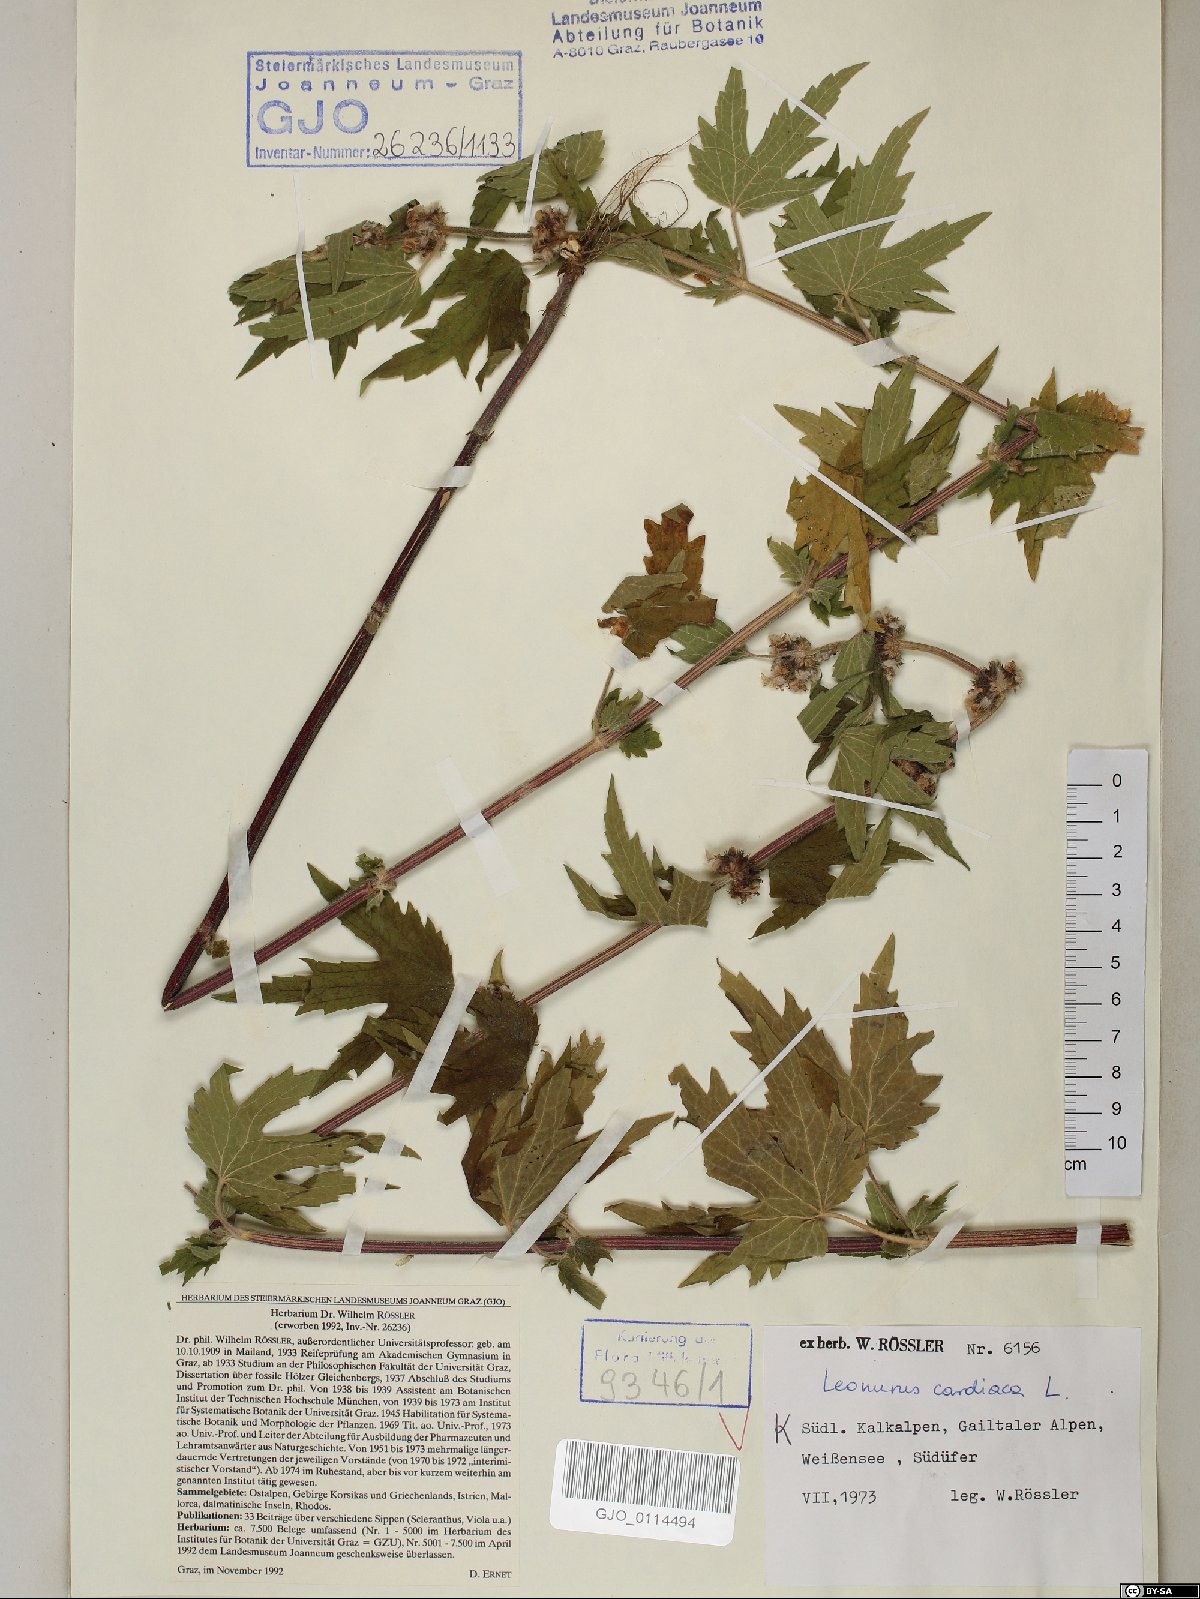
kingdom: Plantae
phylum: Tracheophyta
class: Magnoliopsida
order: Lamiales
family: Lamiaceae
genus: Leonurus
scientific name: Leonurus cardiaca
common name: Motherwort
